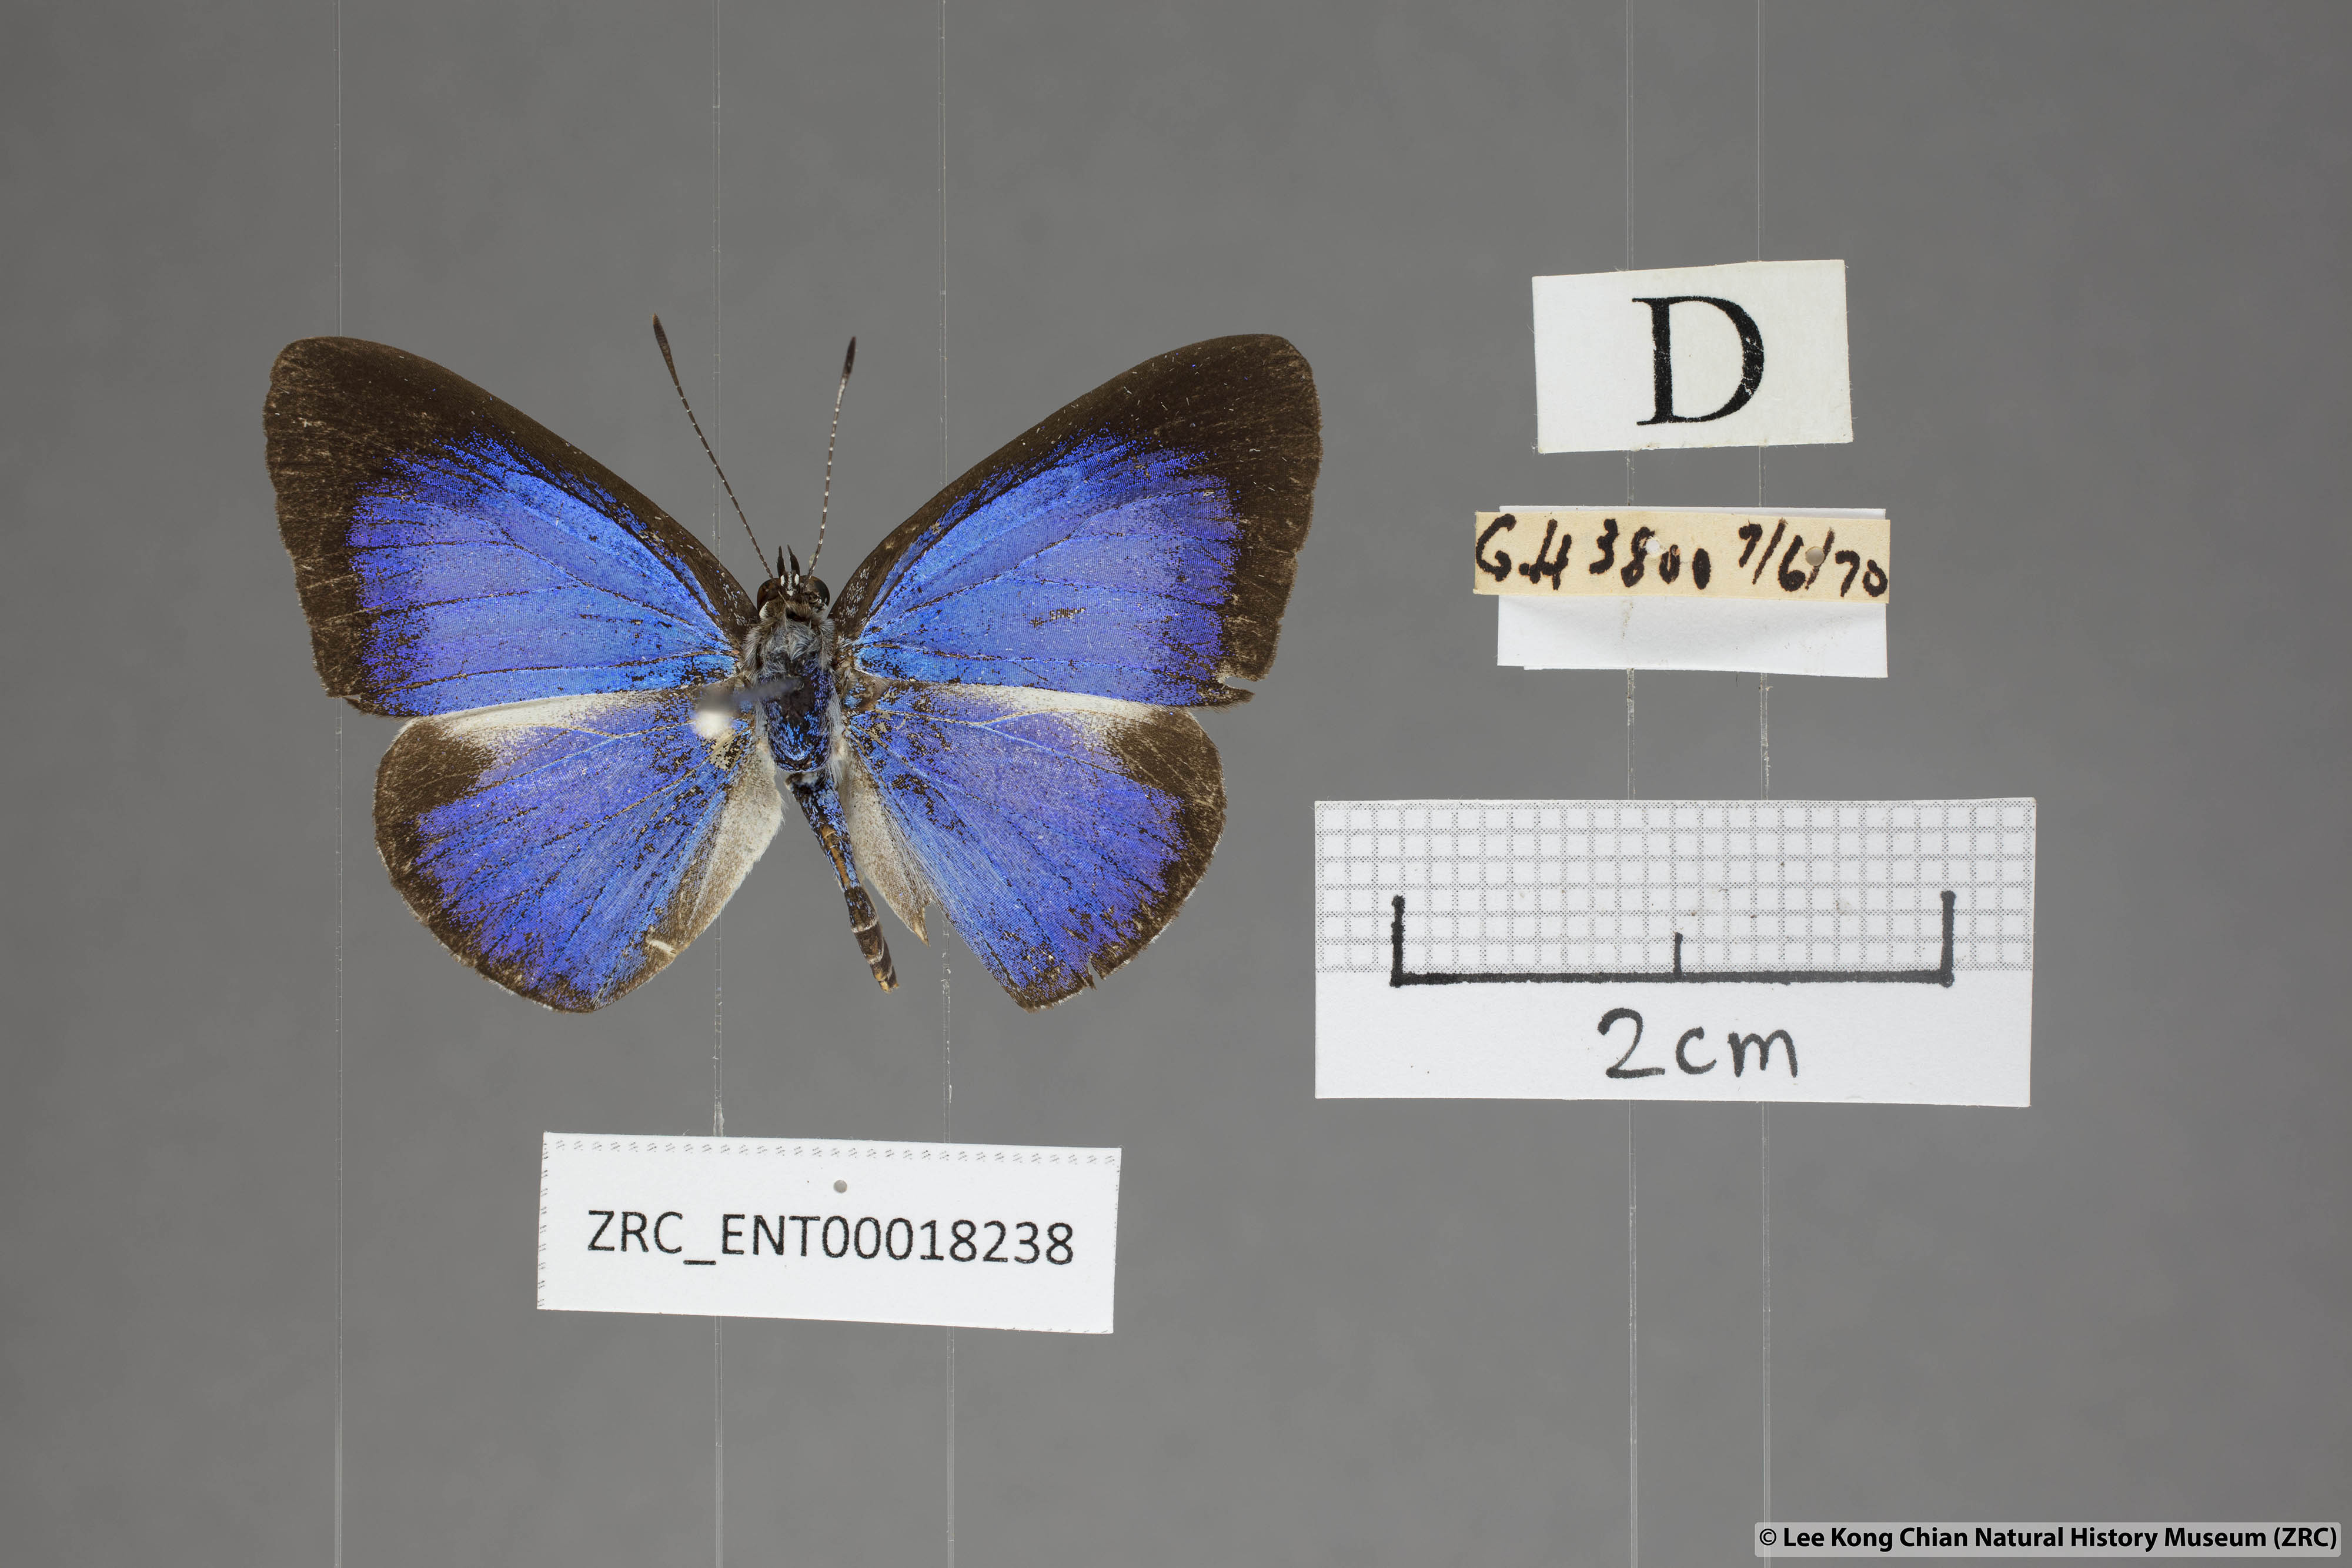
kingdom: Animalia
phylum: Arthropoda
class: Insecta
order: Lepidoptera
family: Lycaenidae
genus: Lycaenopsis
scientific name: Lycaenopsis haraldus
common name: Felder's hedge blue
